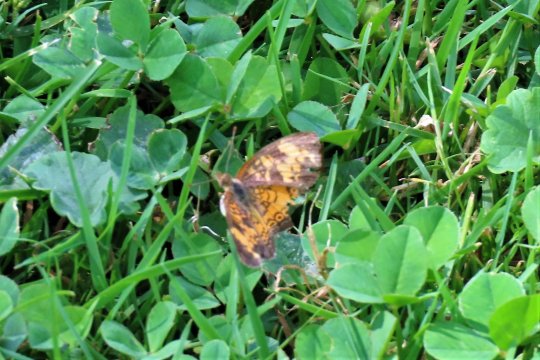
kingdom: Animalia
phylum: Arthropoda
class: Insecta
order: Lepidoptera
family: Nymphalidae
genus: Phyciodes
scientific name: Phyciodes tharos
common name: Pearl Crescent
